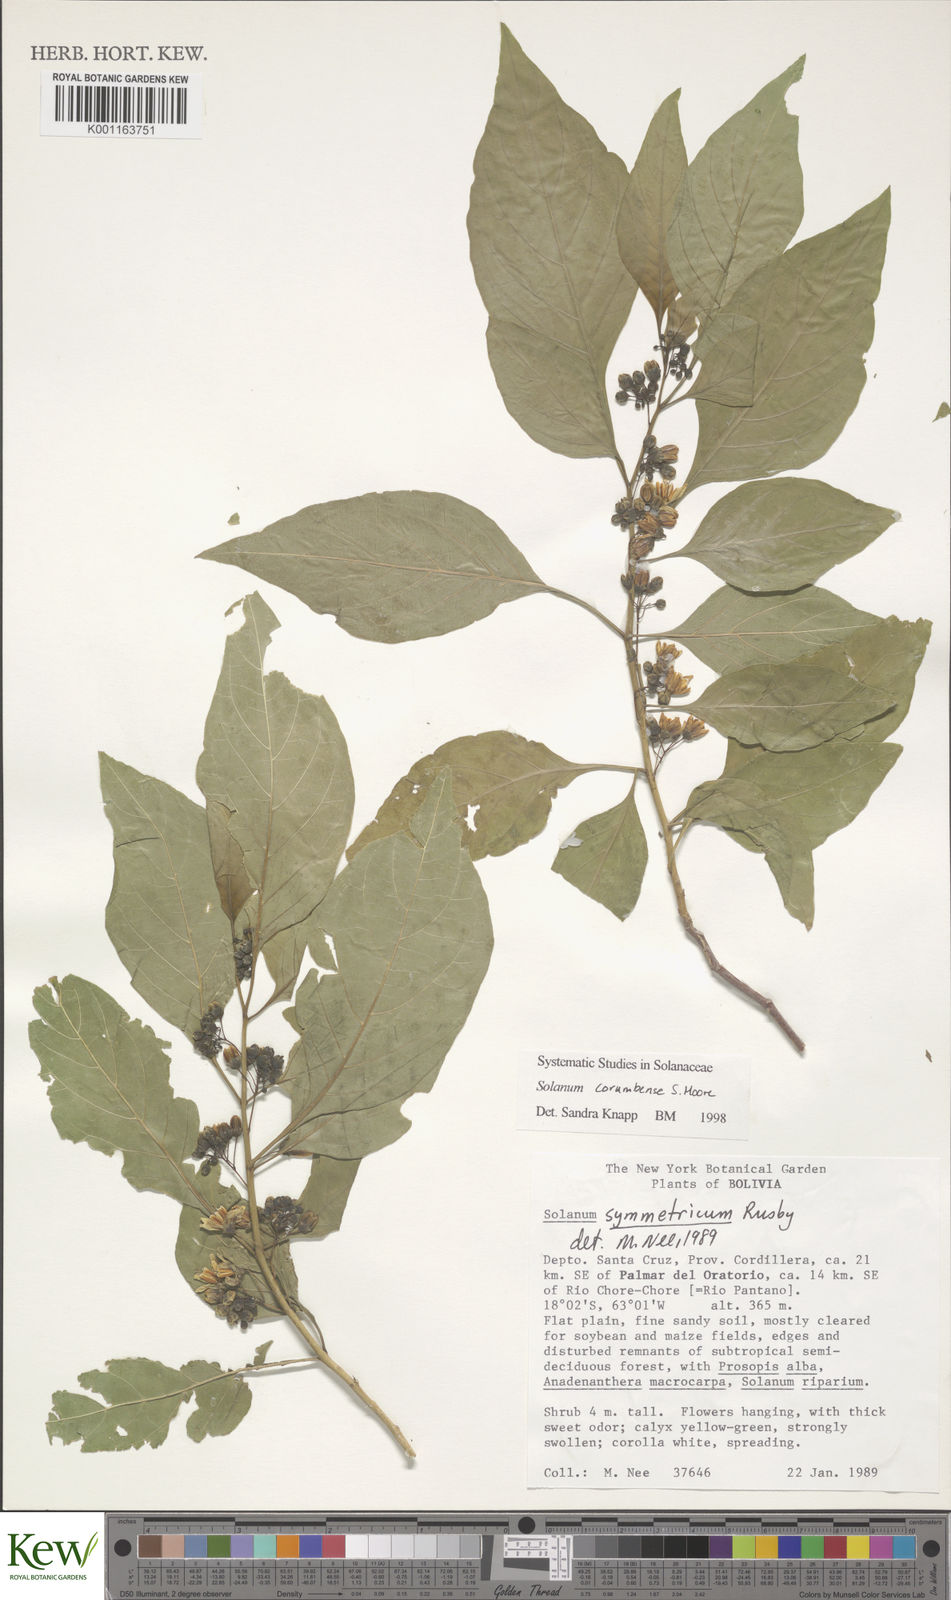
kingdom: Plantae
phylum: Tracheophyta
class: Magnoliopsida
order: Solanales
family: Solanaceae
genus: Solanum
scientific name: Solanum crinitipes
